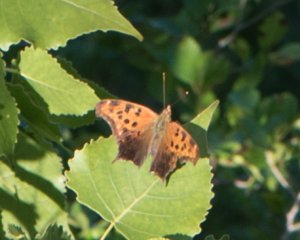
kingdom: Animalia
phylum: Arthropoda
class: Insecta
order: Lepidoptera
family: Nymphalidae
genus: Polygonia
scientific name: Polygonia interrogationis
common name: Question Mark
